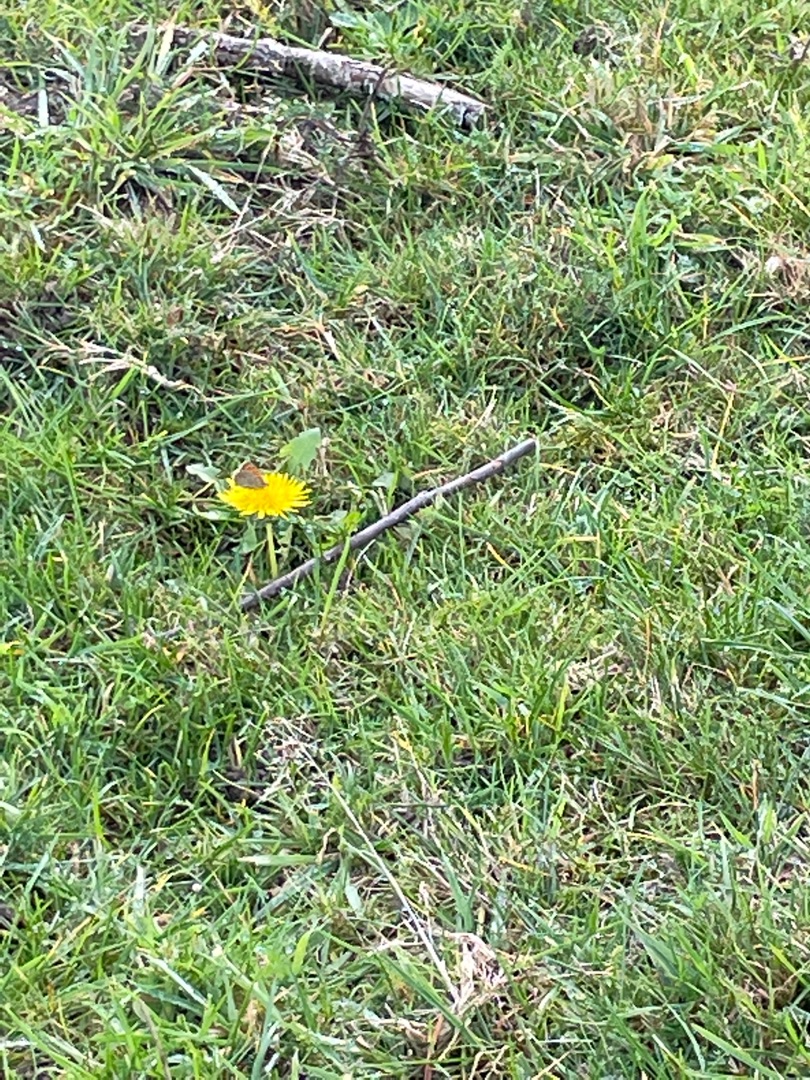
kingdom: Animalia
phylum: Arthropoda
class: Insecta
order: Lepidoptera
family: Lycaenidae
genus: Lycaena
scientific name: Lycaena phlaeas
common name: Lille ildfugl
